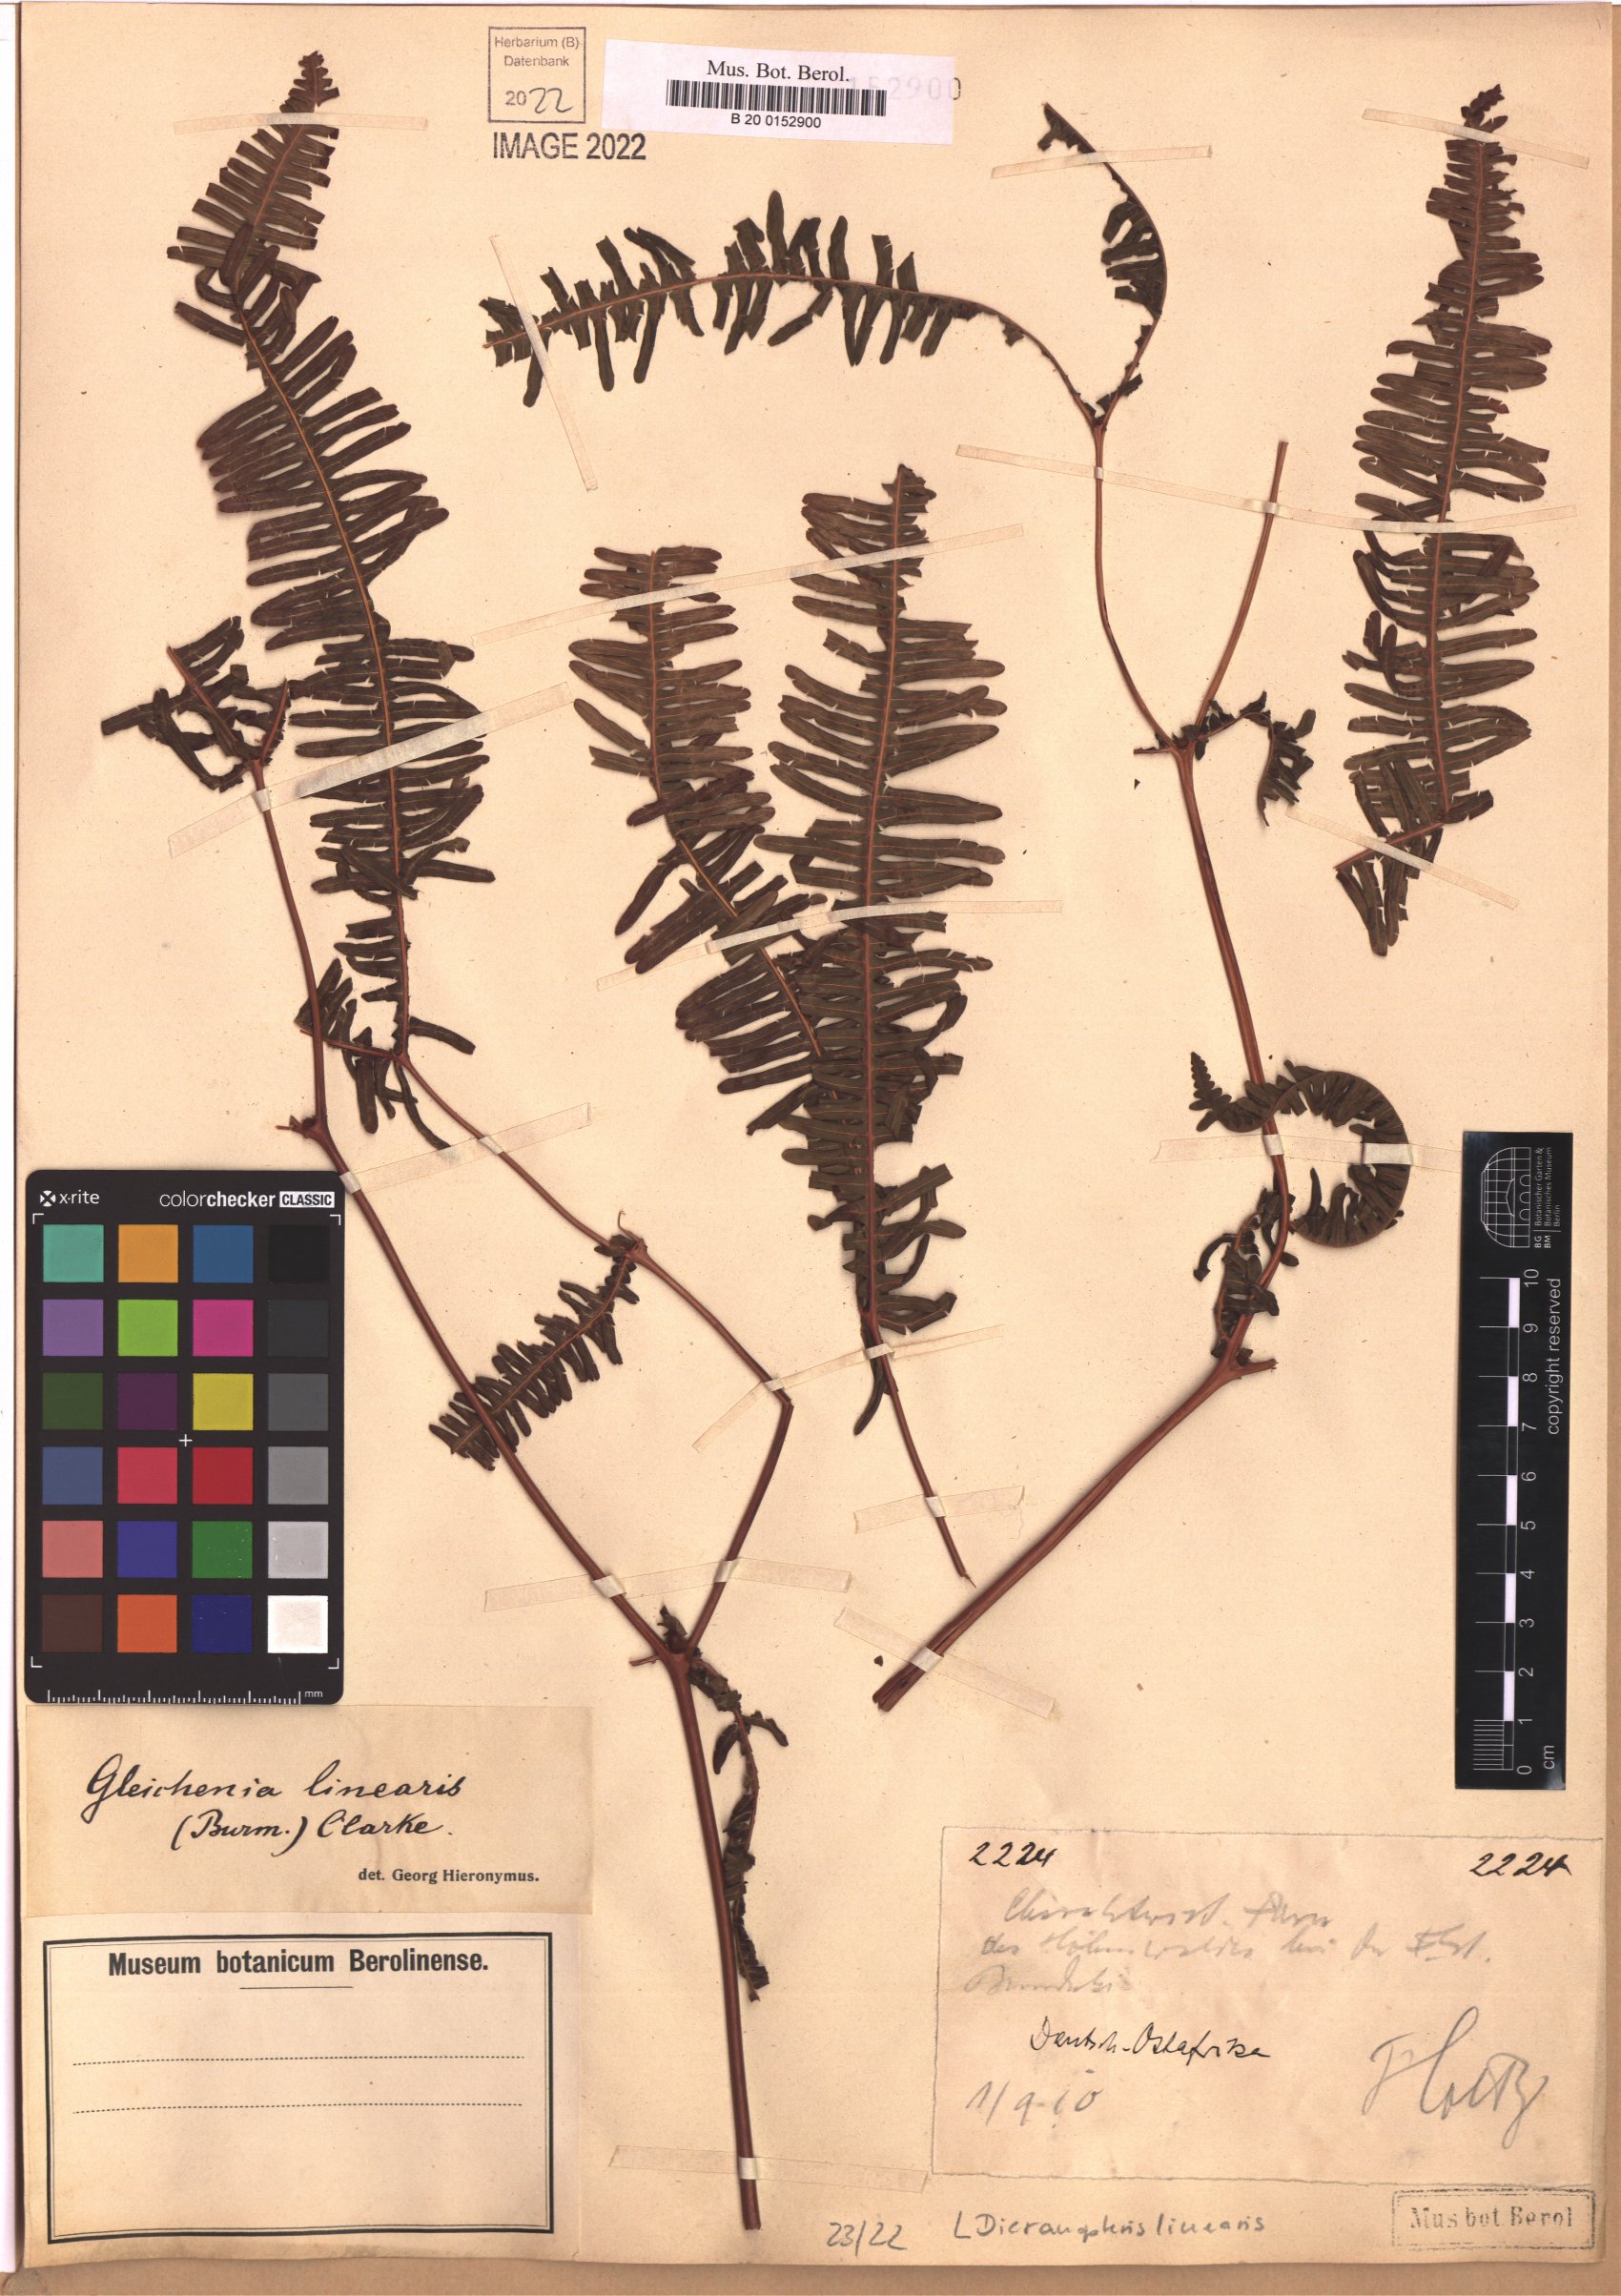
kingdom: Plantae
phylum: Tracheophyta
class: Polypodiopsida
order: Gleicheniales
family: Gleicheniaceae
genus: Dicranopteris
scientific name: Dicranopteris linearis
